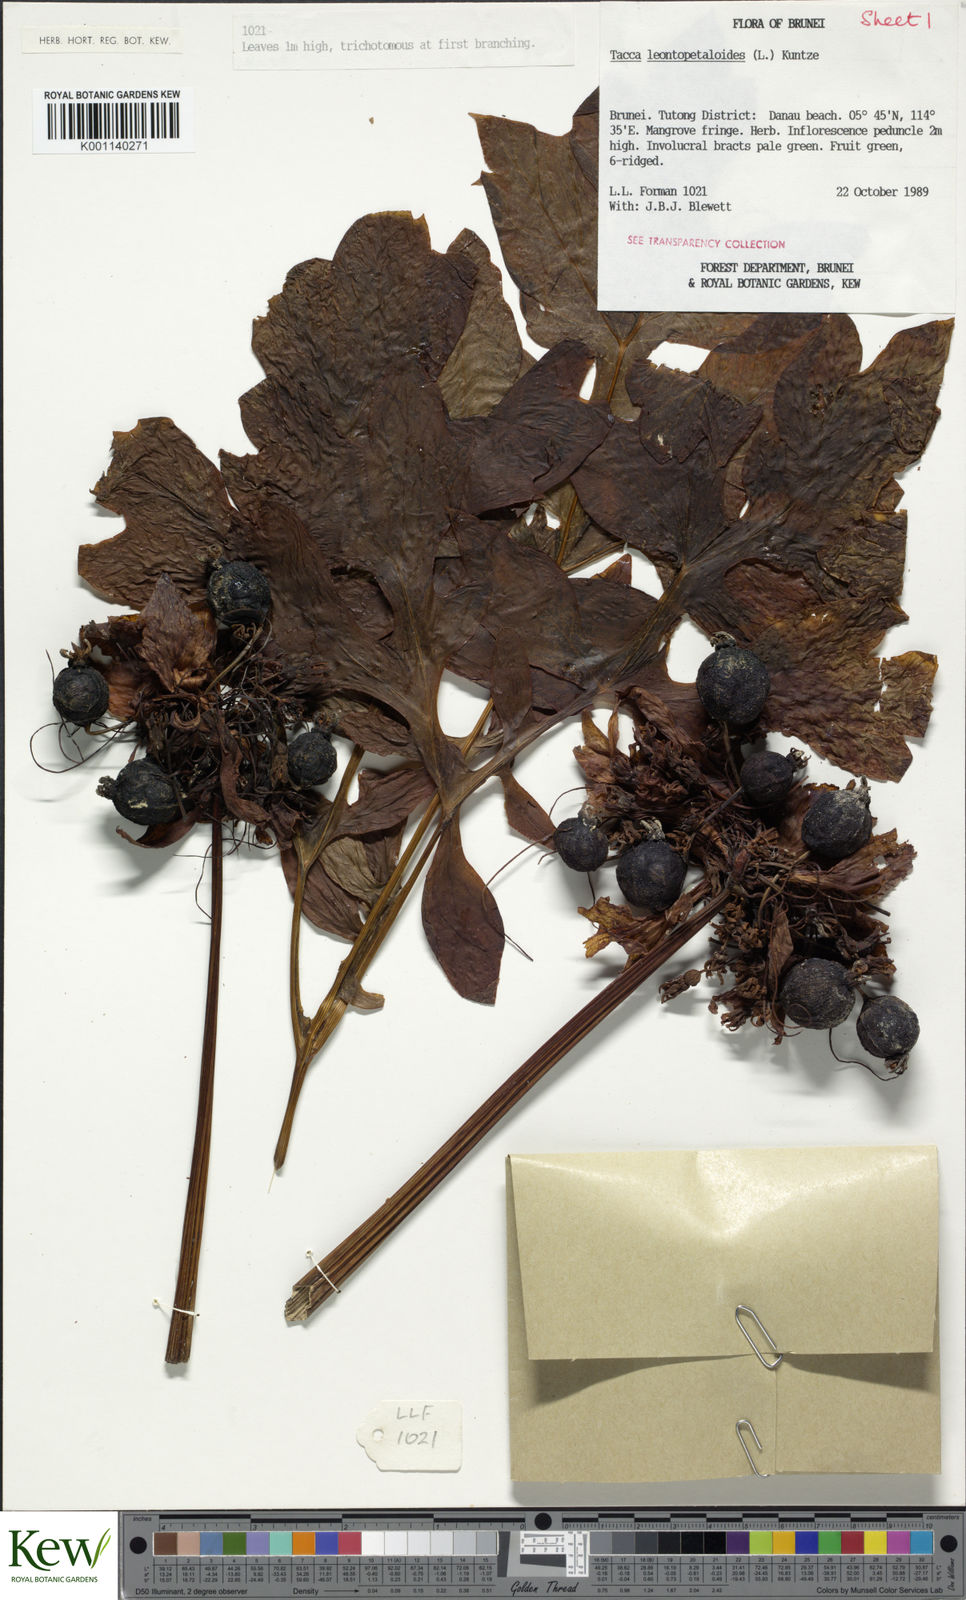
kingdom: Plantae
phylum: Tracheophyta
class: Liliopsida
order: Dioscoreales
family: Dioscoreaceae
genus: Tacca
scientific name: Tacca leontopetaloides
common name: Arrowroot
